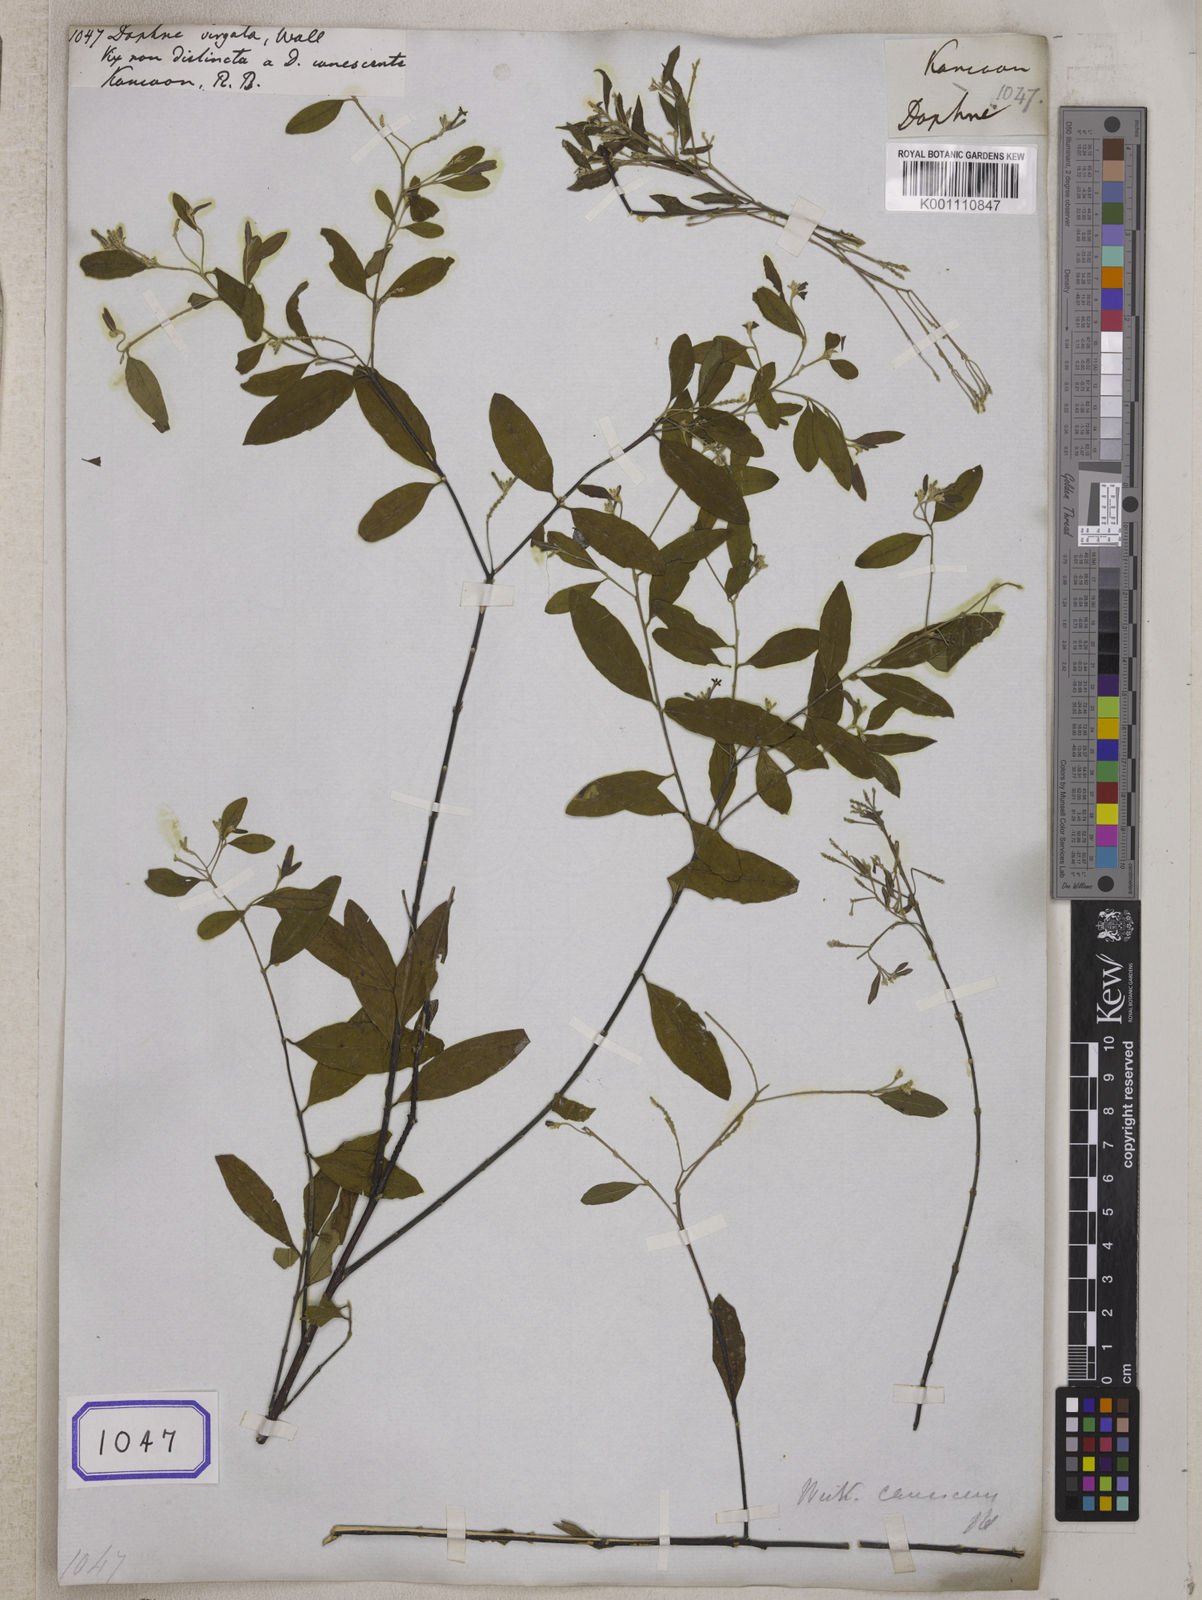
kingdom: Plantae
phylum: Tracheophyta
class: Magnoliopsida
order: Malvales
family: Thymelaeaceae
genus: Wikstroemia
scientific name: Wikstroemia canescens
